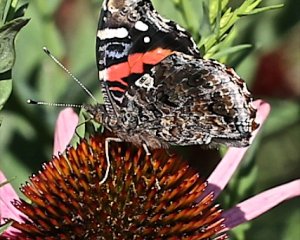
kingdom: Animalia
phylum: Arthropoda
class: Insecta
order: Lepidoptera
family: Nymphalidae
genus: Vanessa
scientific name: Vanessa atalanta
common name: Red Admiral
